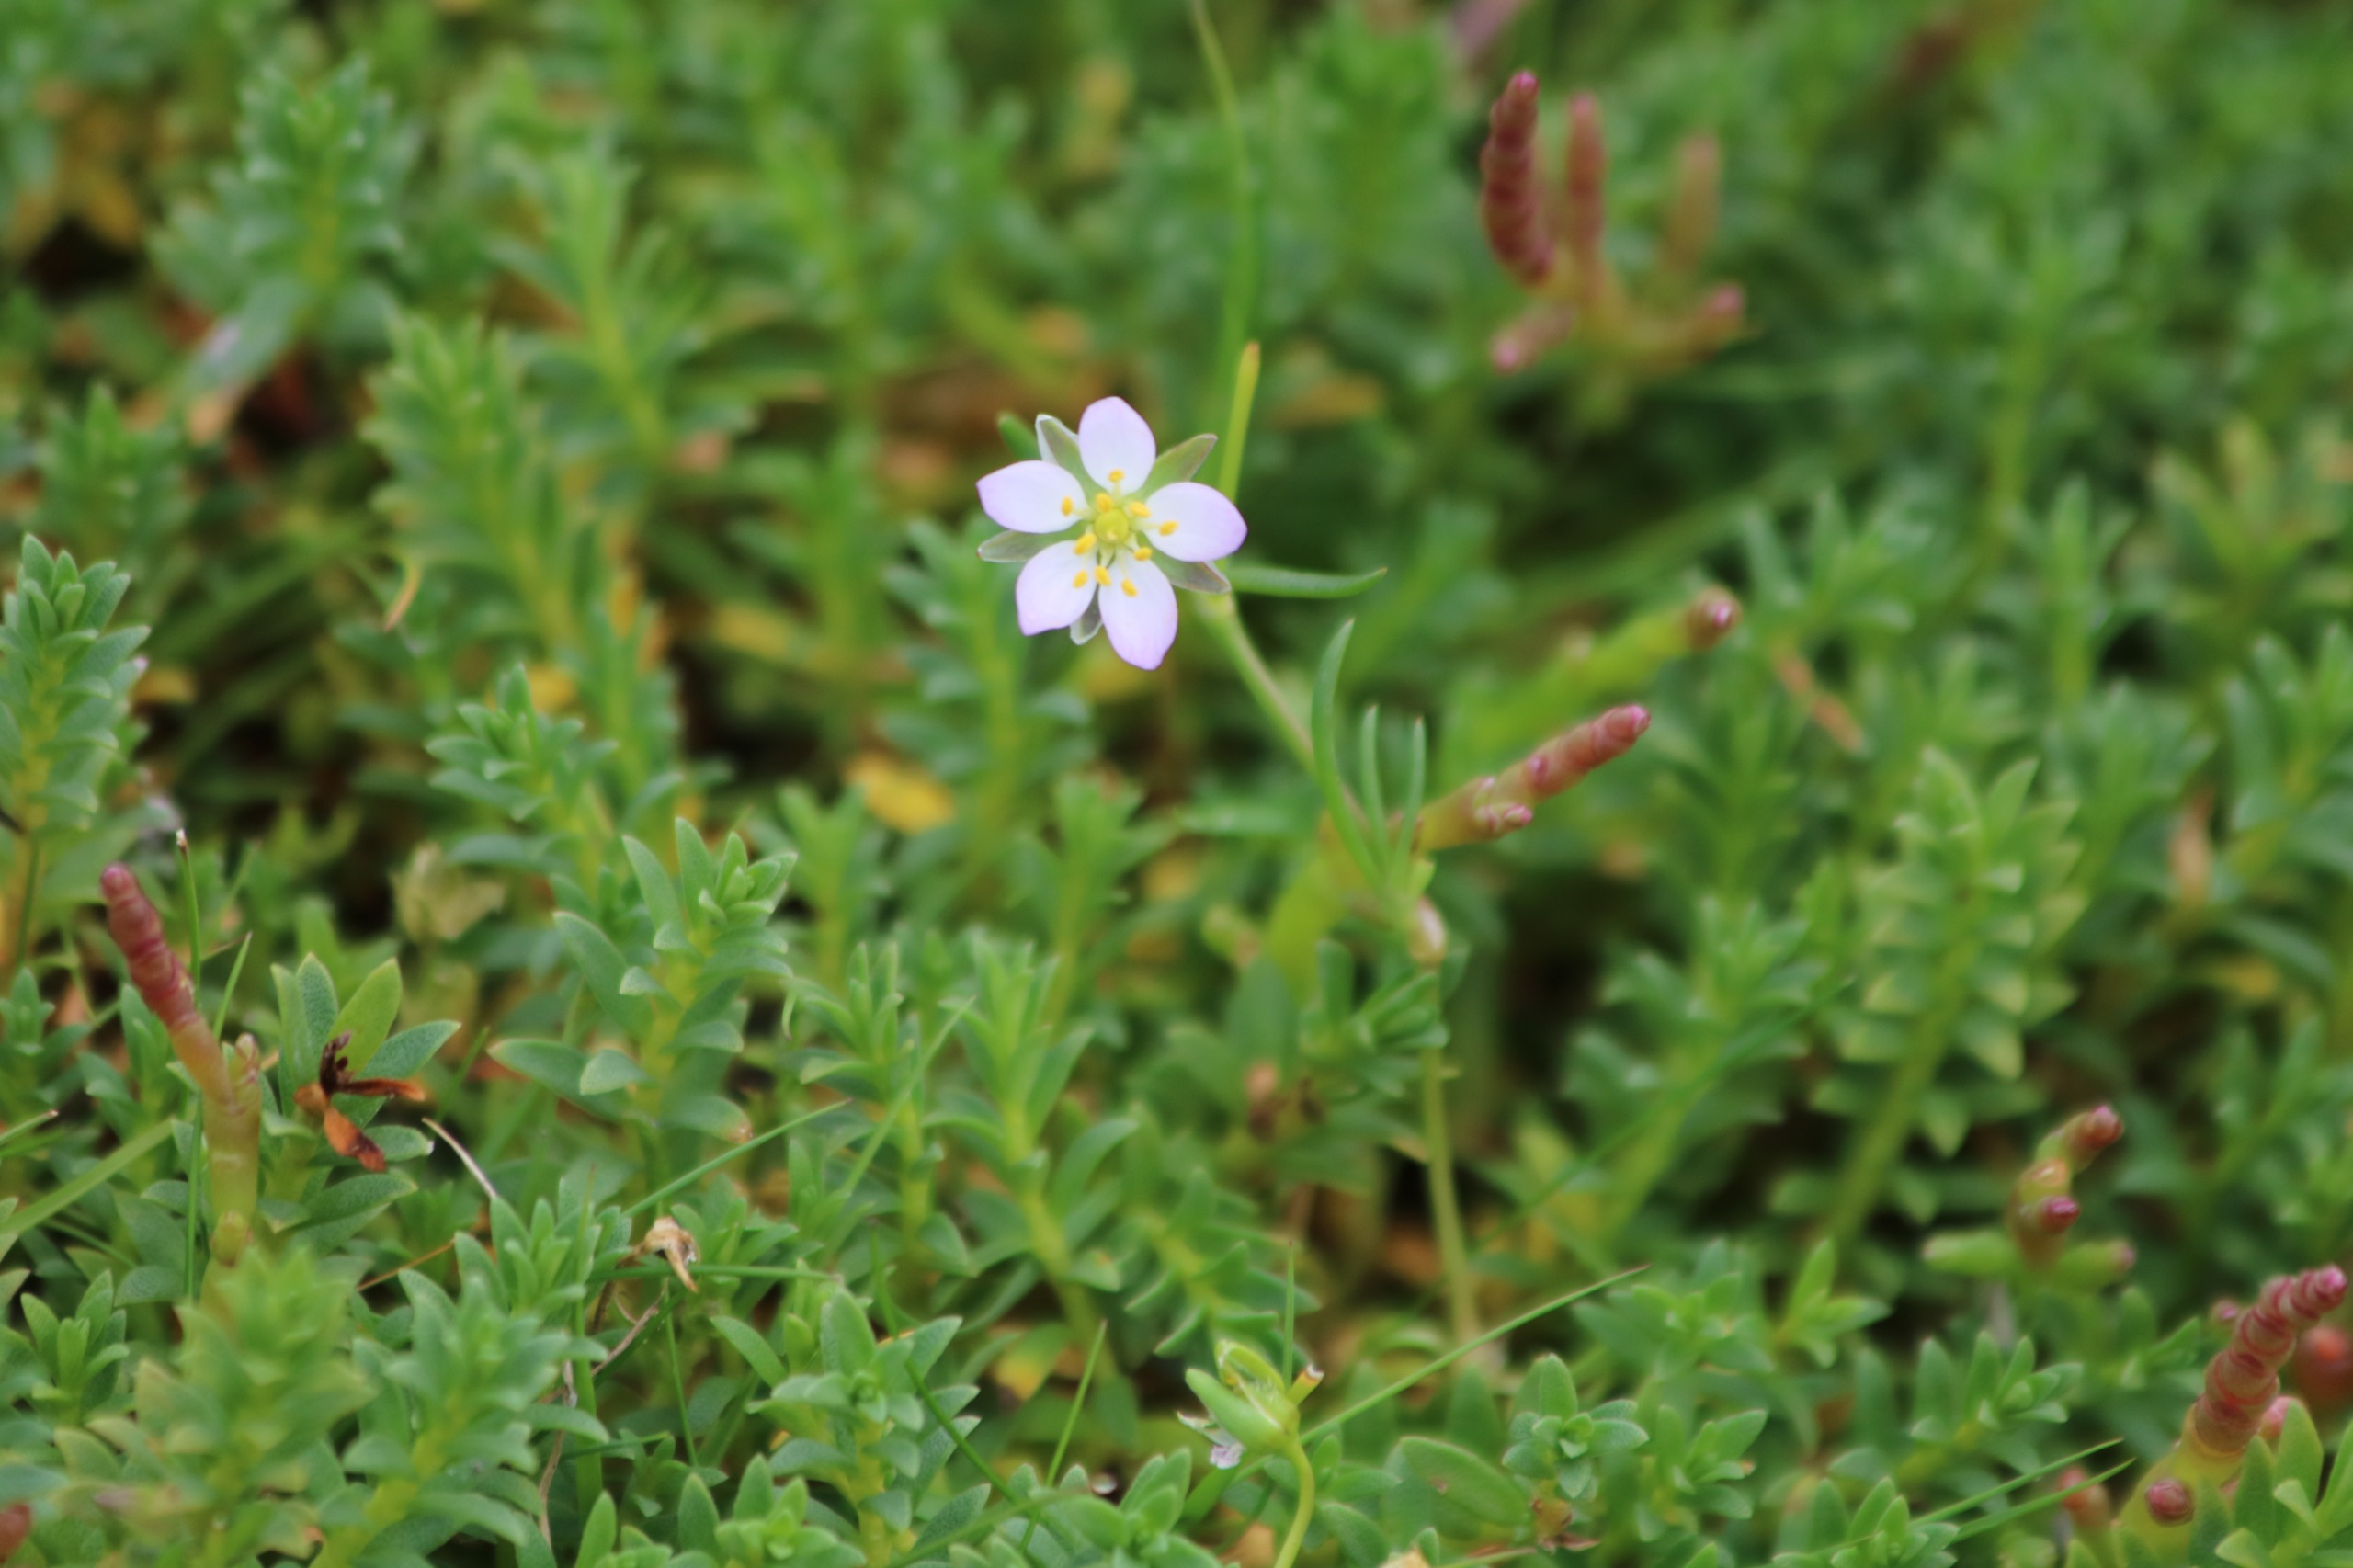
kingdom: Plantae
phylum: Tracheophyta
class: Magnoliopsida
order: Caryophyllales
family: Caryophyllaceae
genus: Spergularia
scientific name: Spergularia media
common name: Vingefrøet hindeknæ
